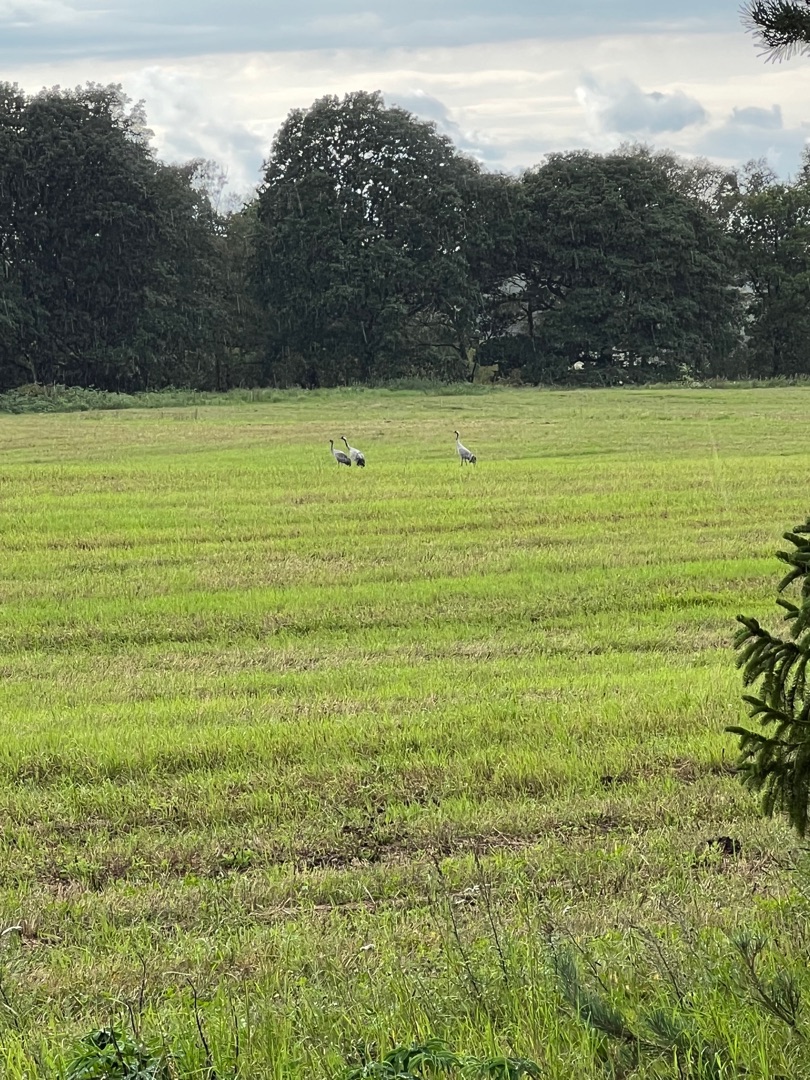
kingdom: Animalia
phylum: Chordata
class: Aves
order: Gruiformes
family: Gruidae
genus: Grus
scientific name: Grus grus
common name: Trane
